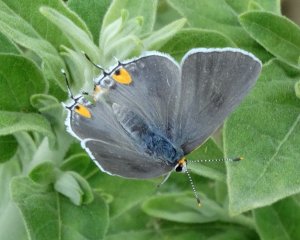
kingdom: Animalia
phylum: Arthropoda
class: Insecta
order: Lepidoptera
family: Lycaenidae
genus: Strymon
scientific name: Strymon melinus
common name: Gray Hairstreak
